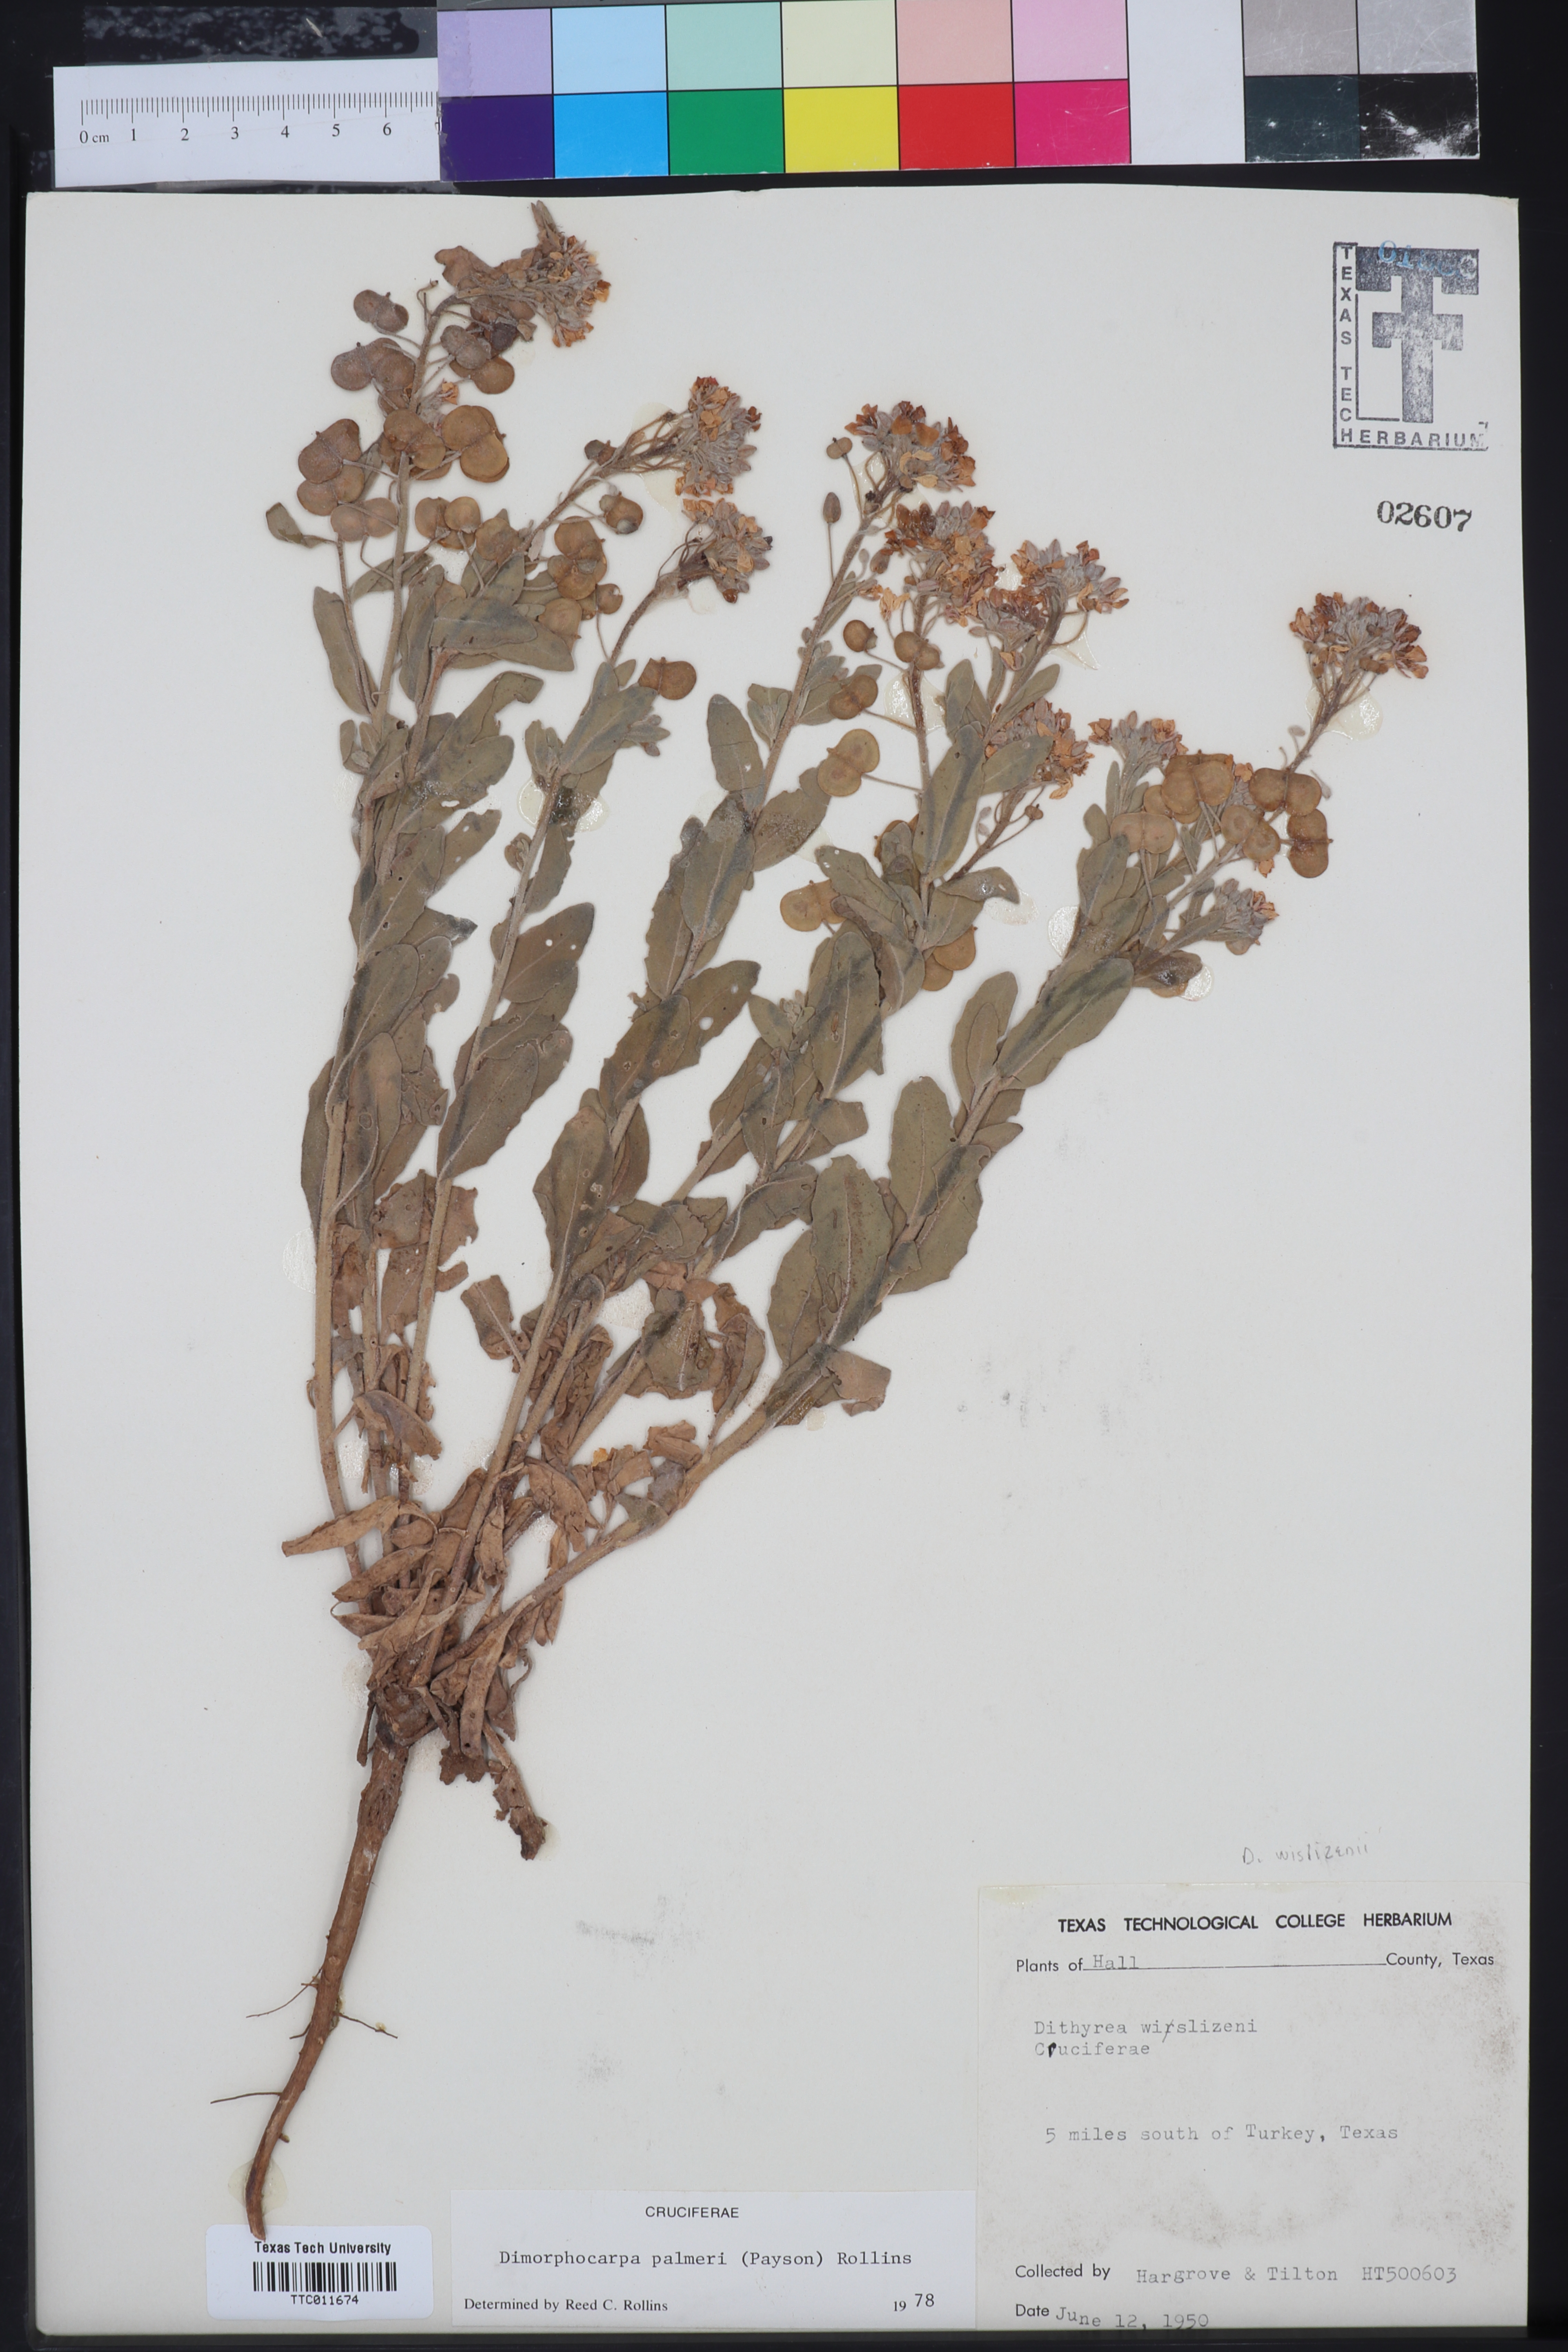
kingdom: Plantae
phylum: Tracheophyta
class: Magnoliopsida
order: Brassicales
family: Brassicaceae
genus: Dimorphocarpa
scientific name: Dimorphocarpa candicans
